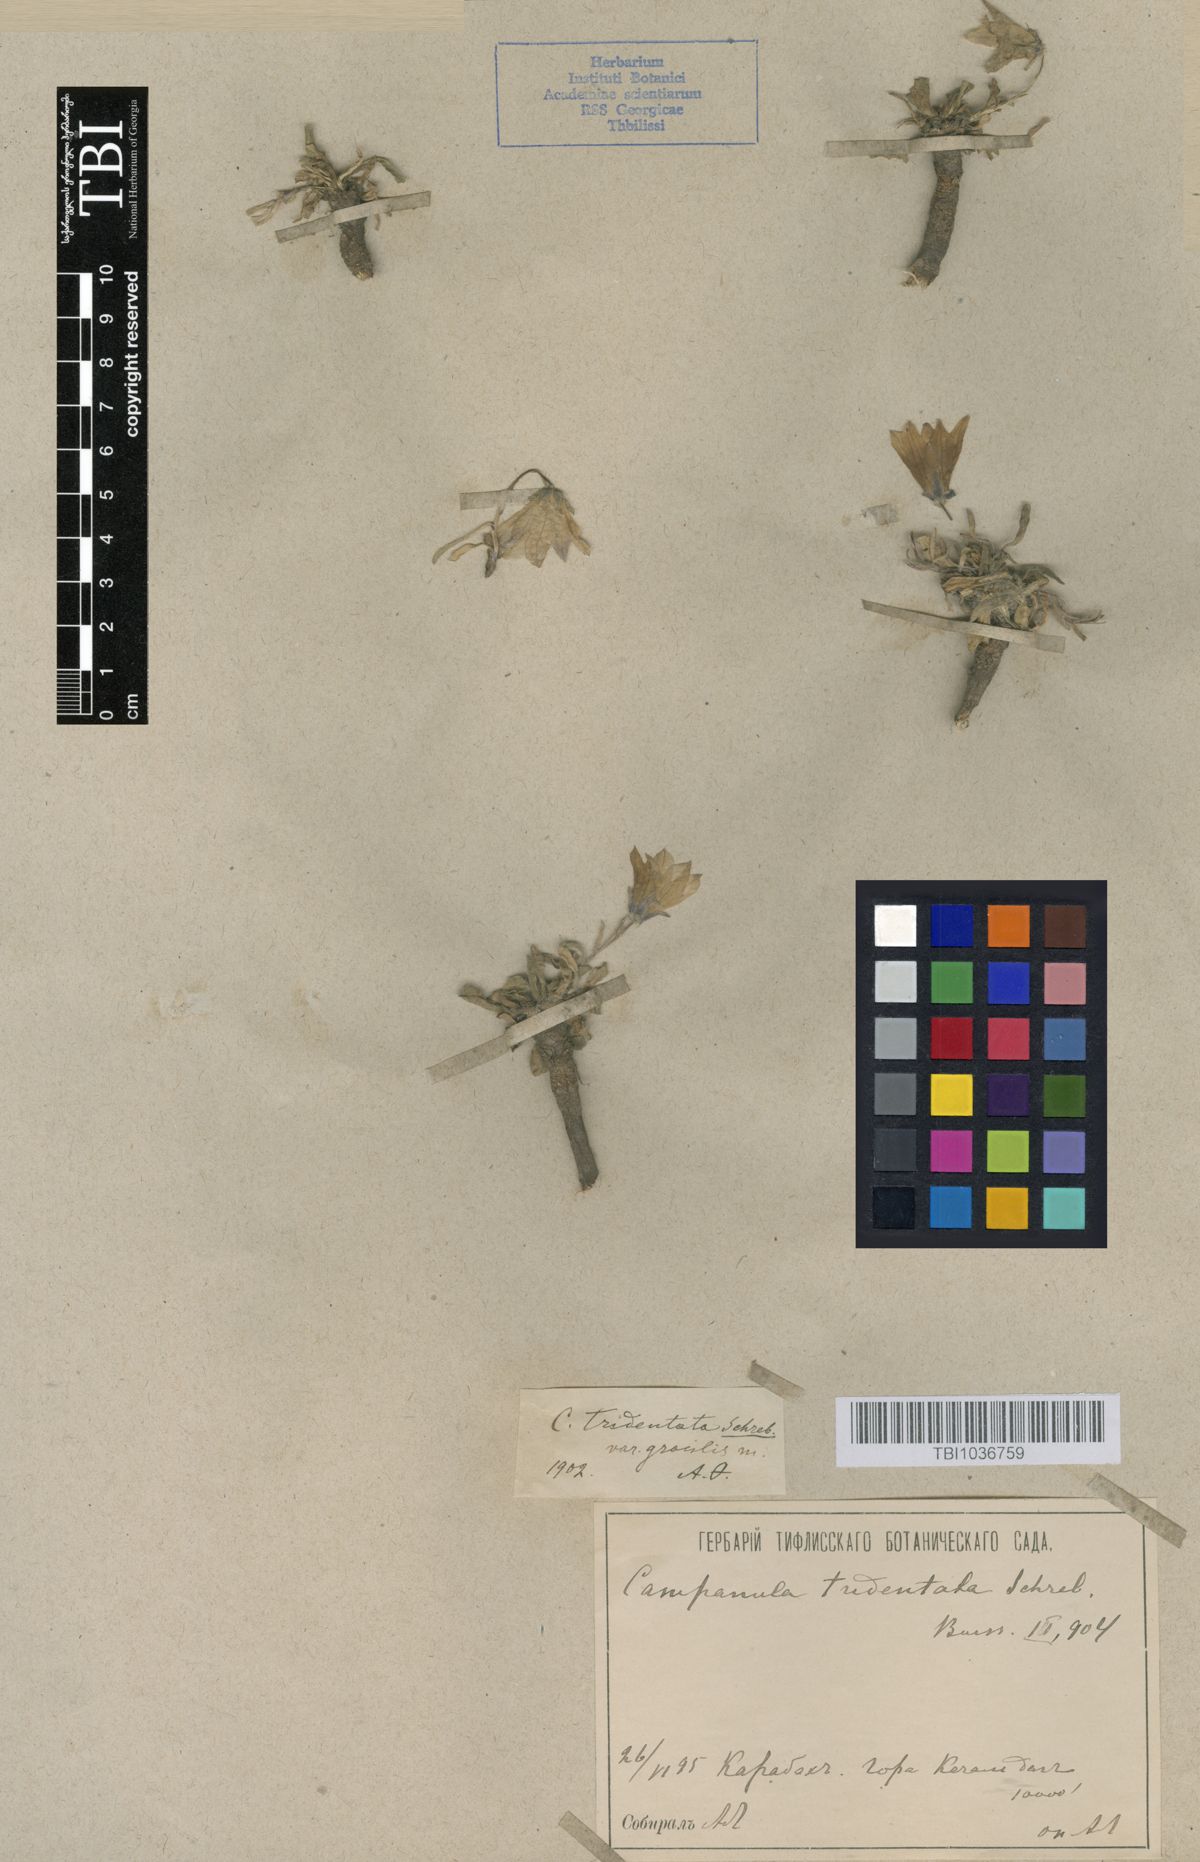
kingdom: Plantae
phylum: Tracheophyta
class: Magnoliopsida
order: Asterales
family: Campanulaceae
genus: Campanula
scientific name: Campanula tridentata
